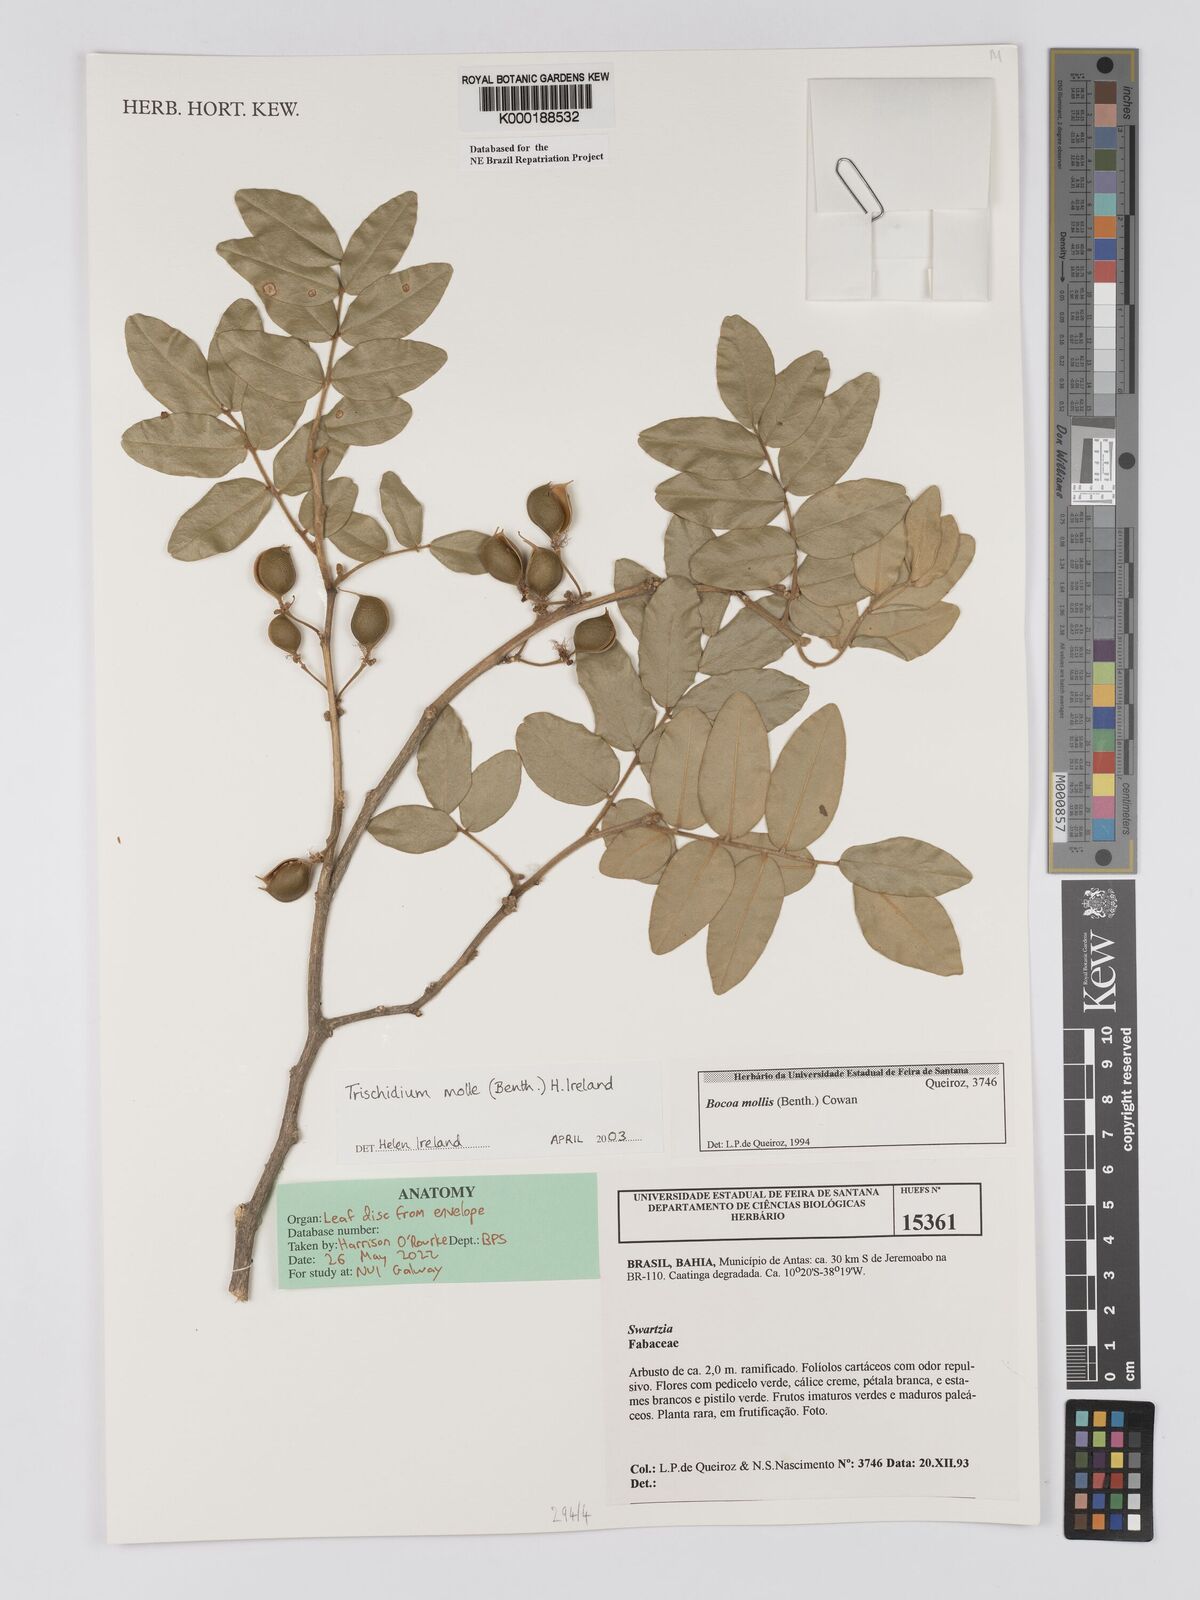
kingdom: Plantae
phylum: Tracheophyta
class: Magnoliopsida
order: Fabales
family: Fabaceae
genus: Trischidium
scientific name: Trischidium
